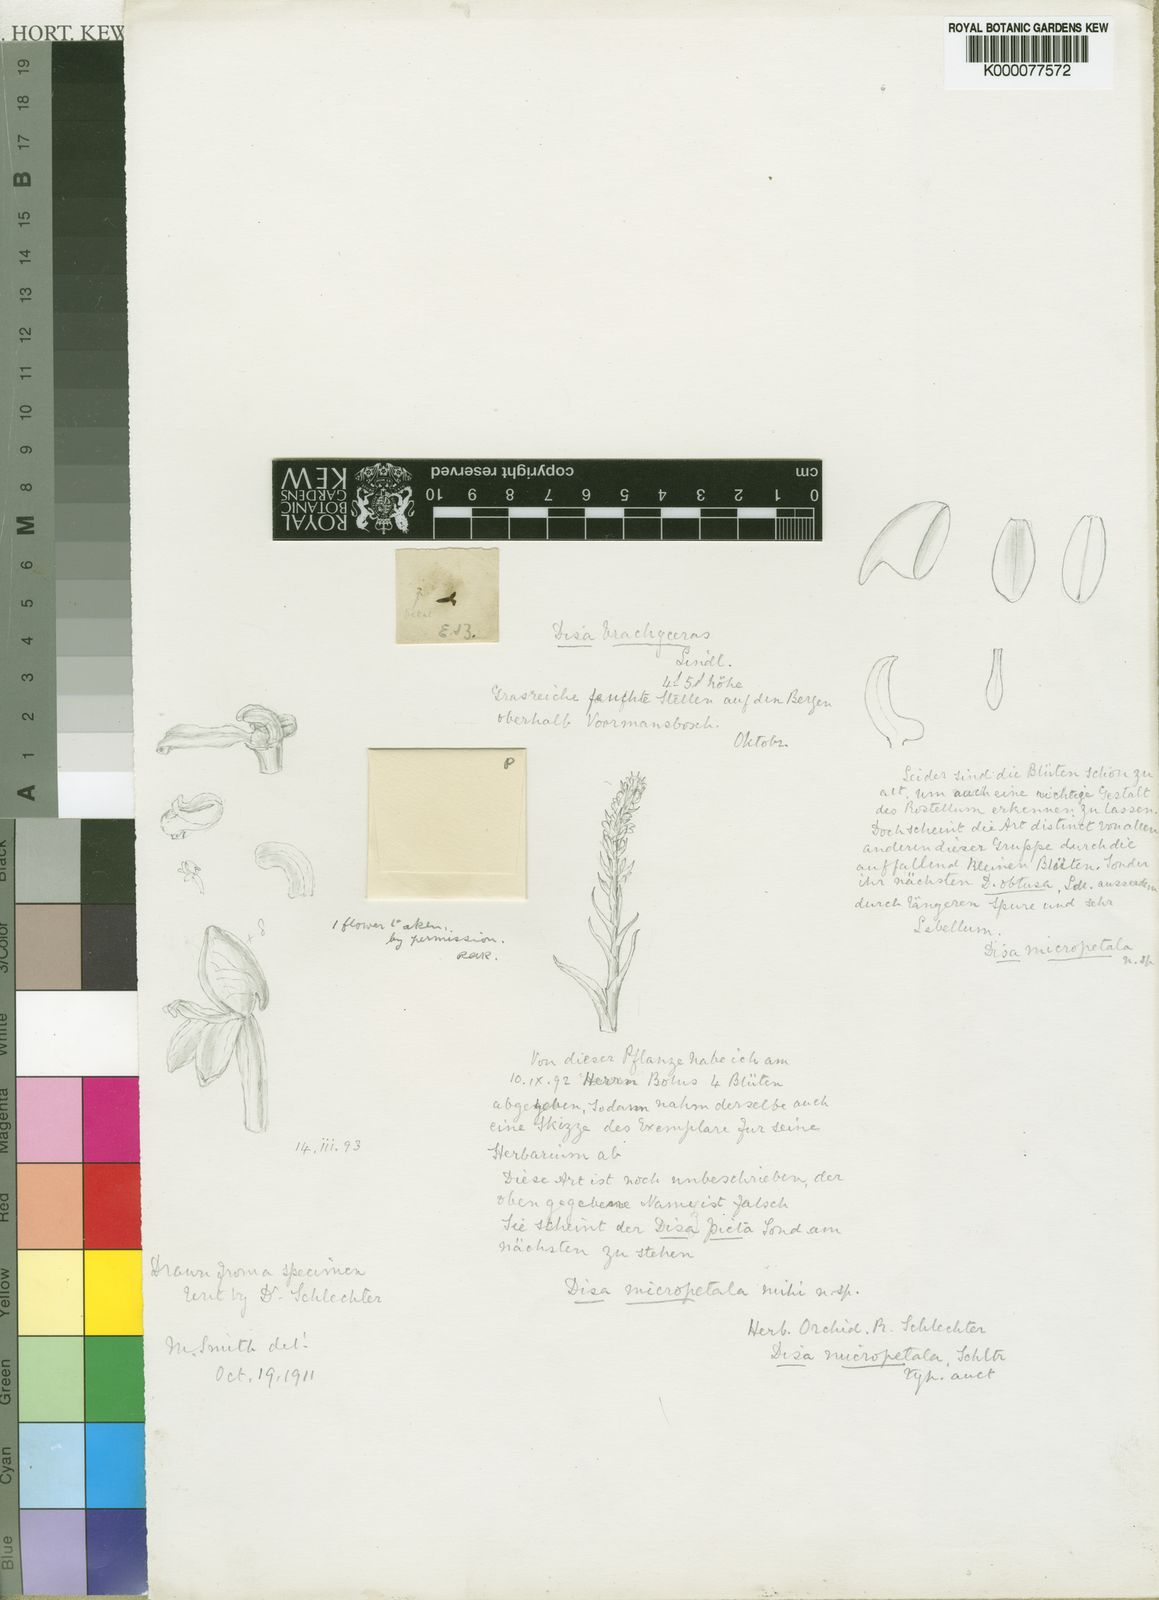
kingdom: Plantae
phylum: Tracheophyta
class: Liliopsida
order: Asparagales
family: Orchidaceae
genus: Disa
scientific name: Disa micropetala
